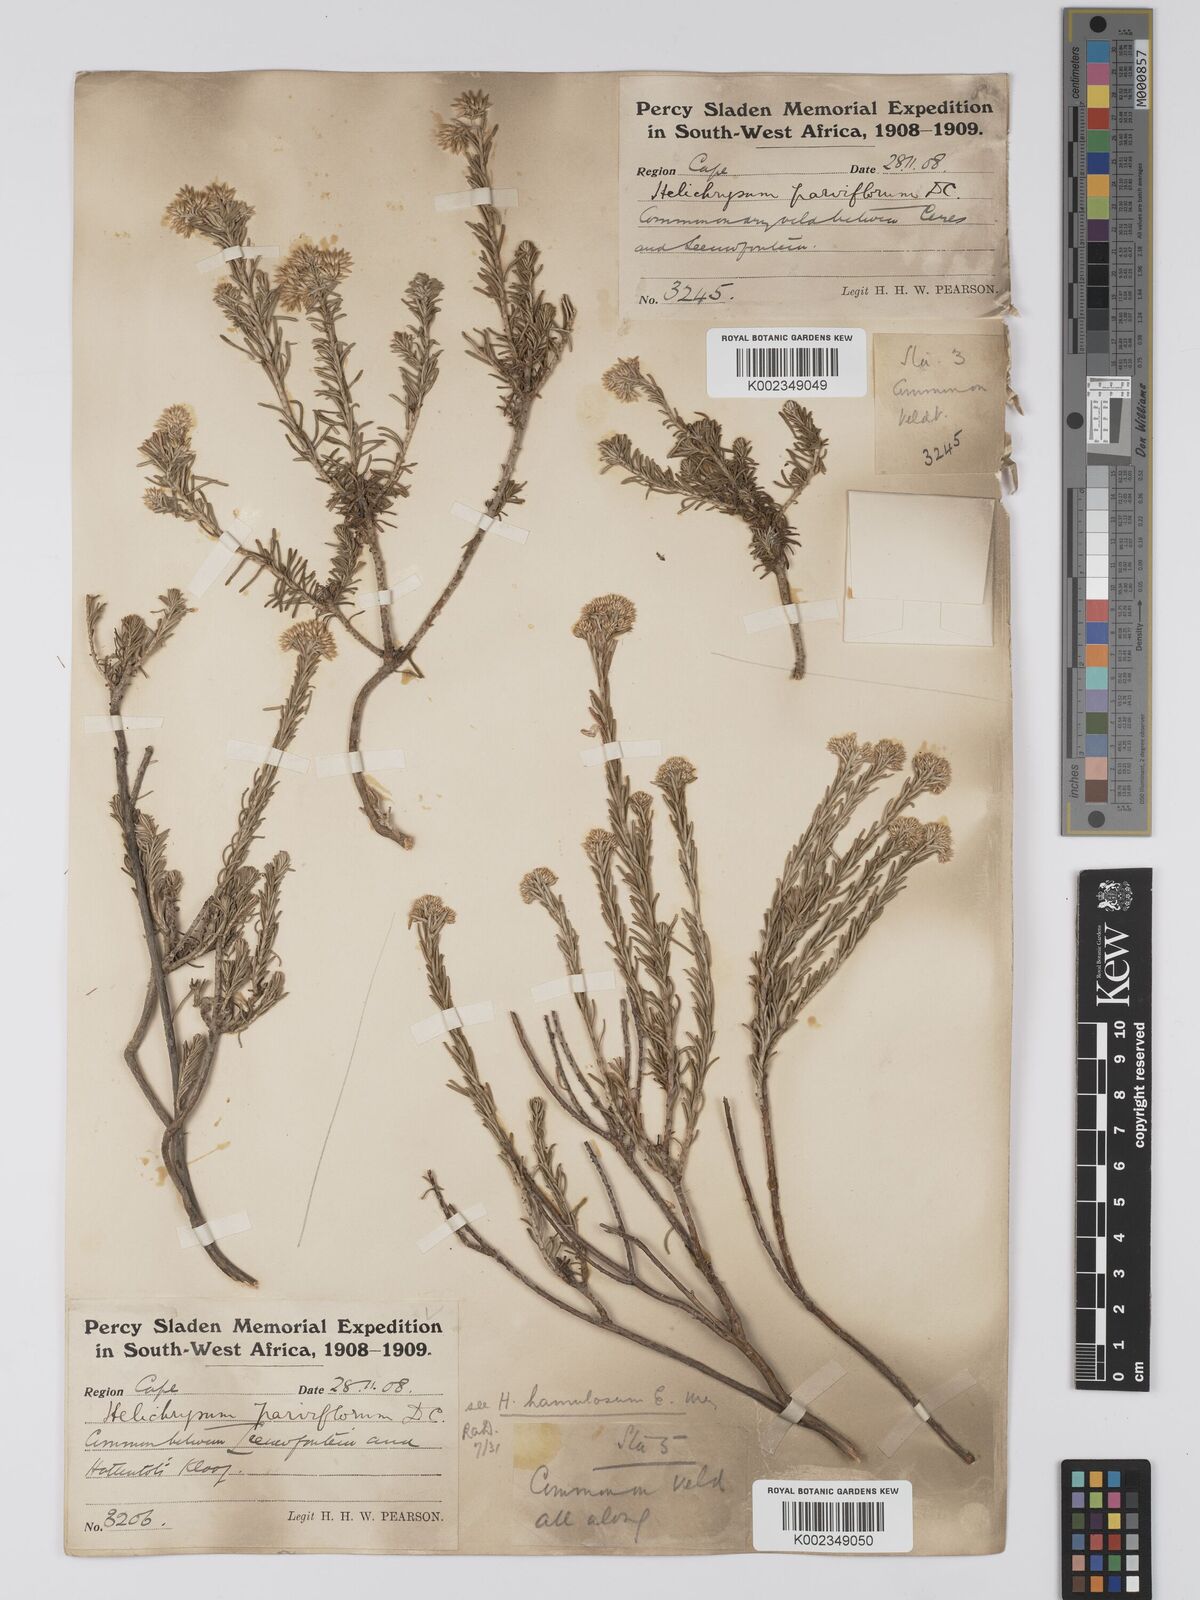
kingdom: Plantae
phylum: Tracheophyta
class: Magnoliopsida
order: Asterales
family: Asteraceae
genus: Helichrysum
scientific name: Helichrysum hamulosum
